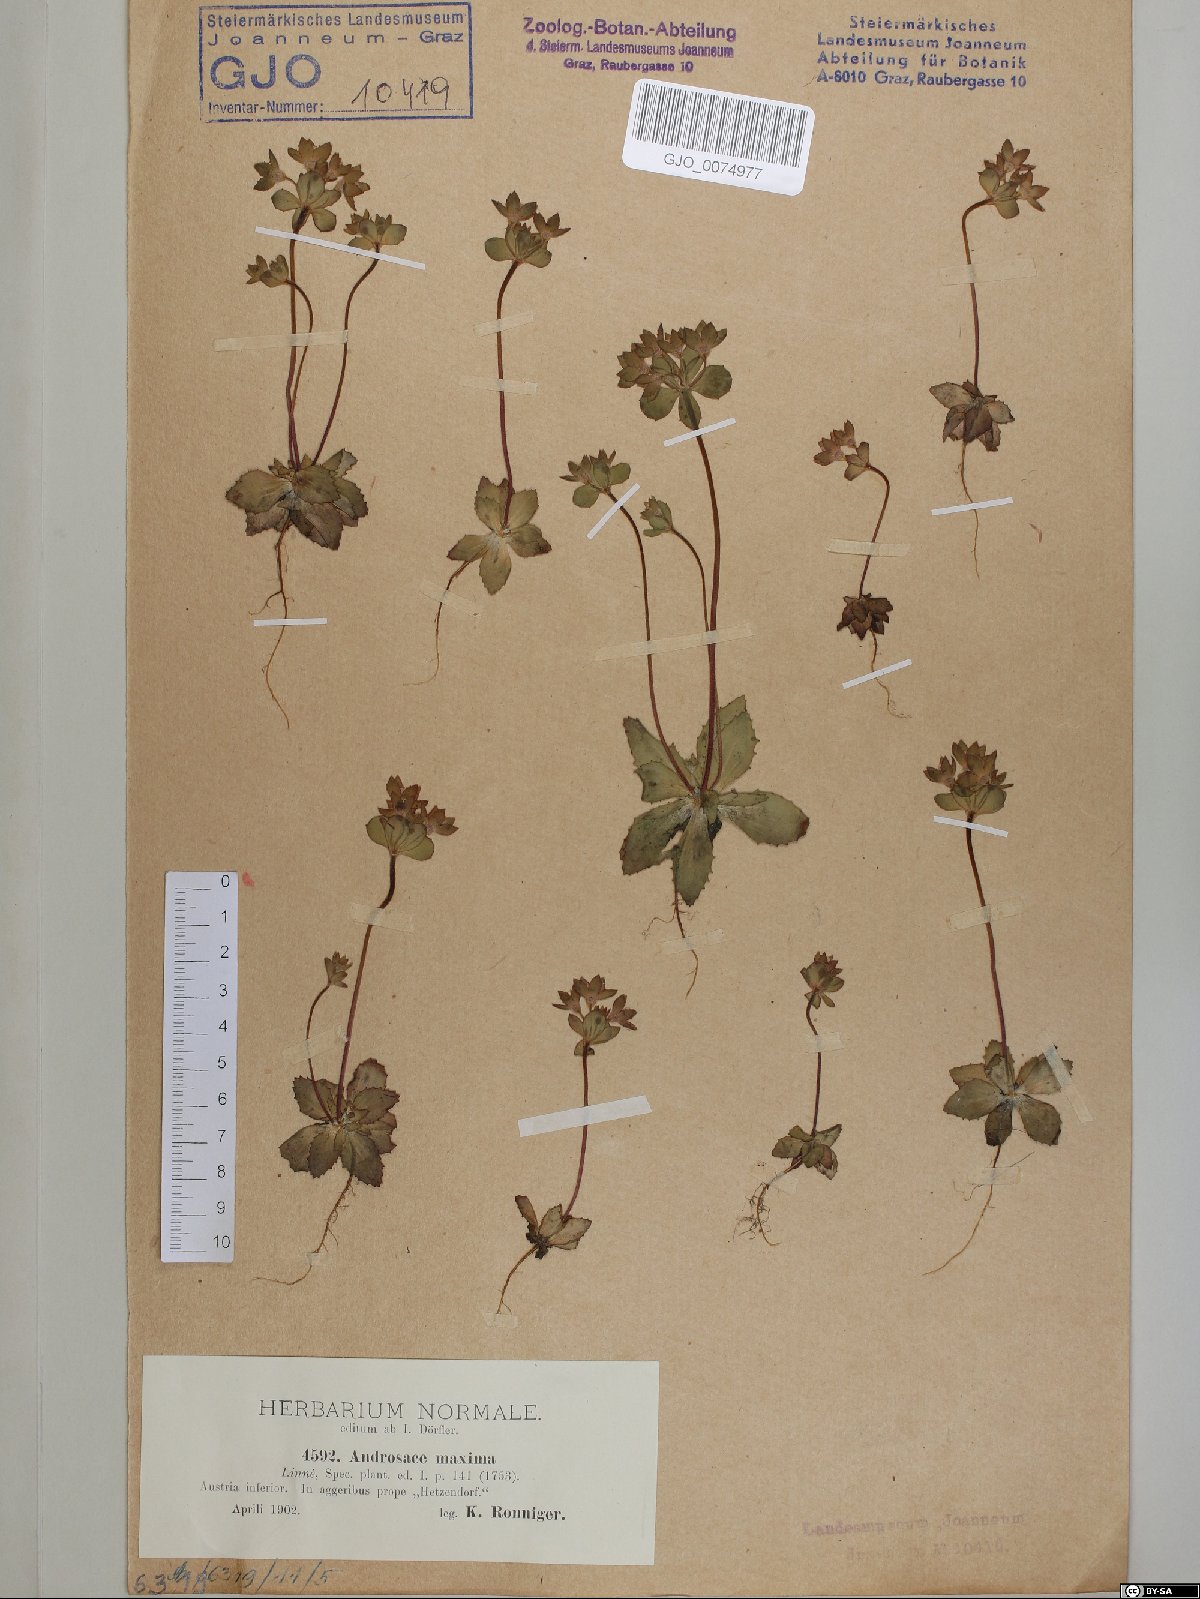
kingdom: Plantae
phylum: Tracheophyta
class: Magnoliopsida
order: Ericales
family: Primulaceae
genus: Androsace
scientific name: Androsace maxima
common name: Annual androsace
